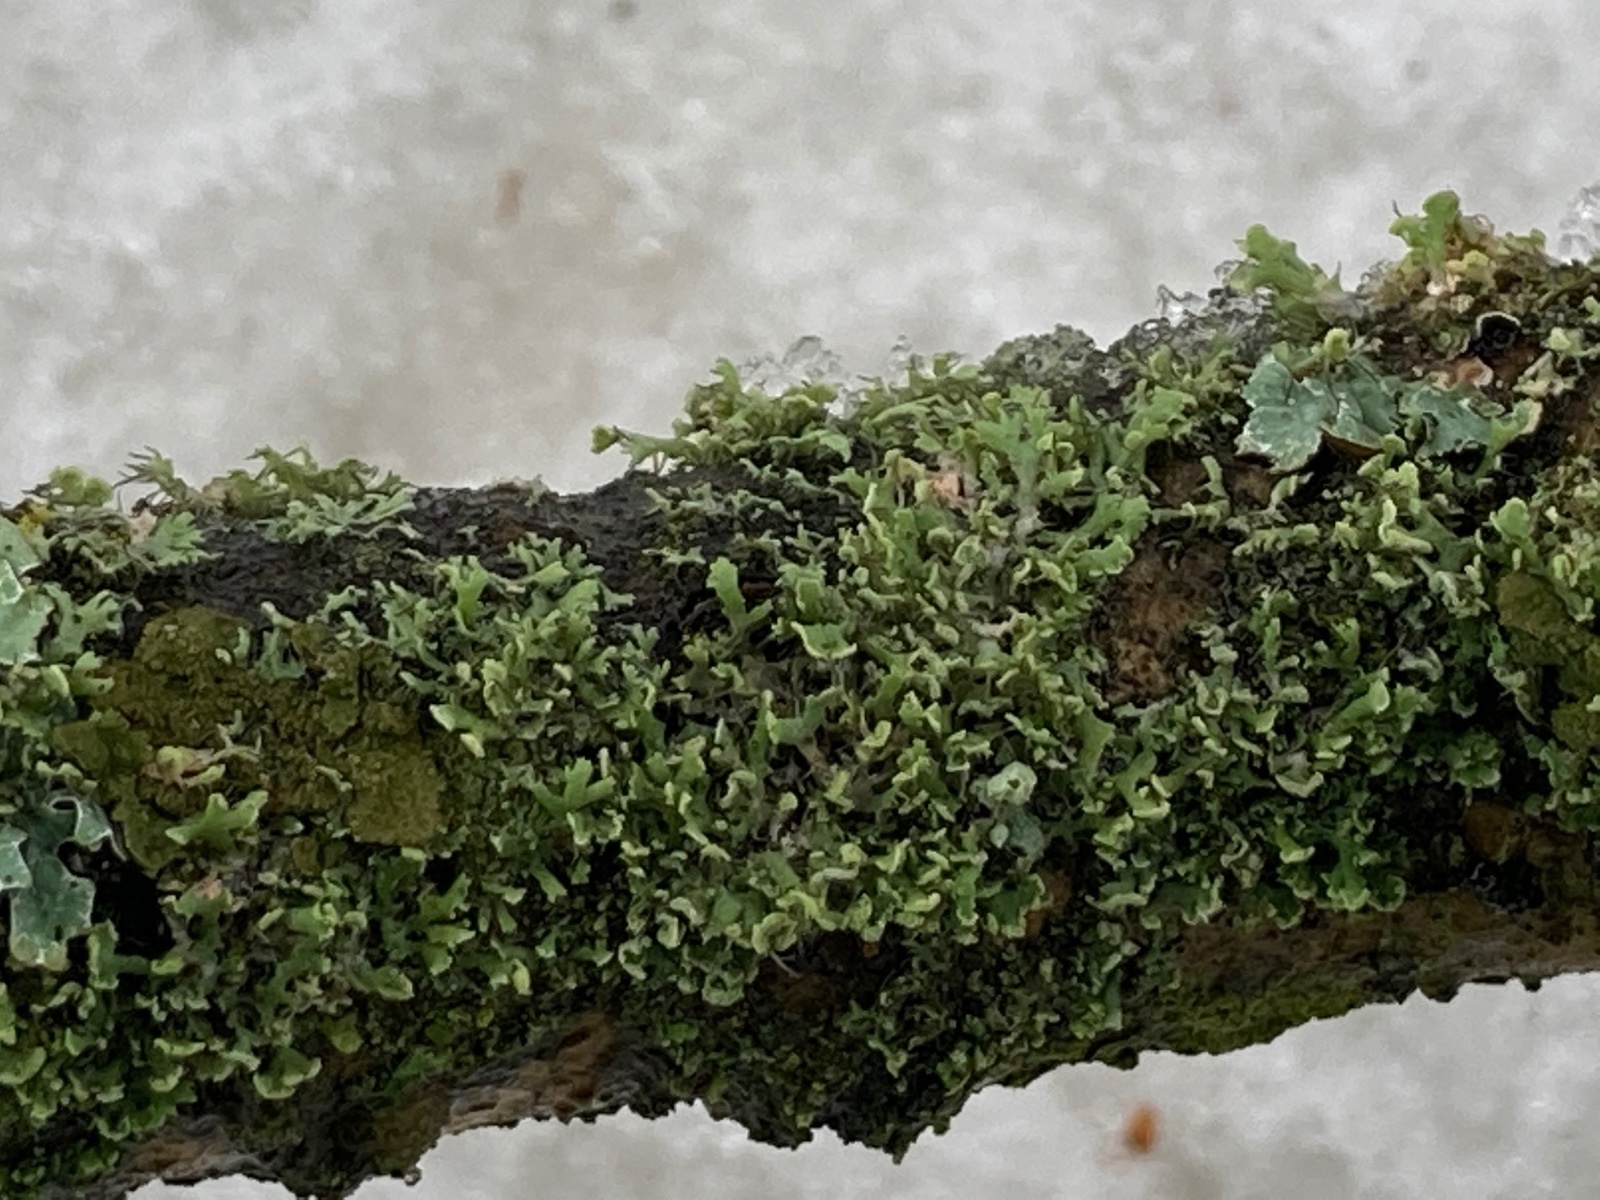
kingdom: Fungi
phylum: Ascomycota
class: Lecanoromycetes
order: Caliciales
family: Physciaceae
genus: Physcia
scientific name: Physcia tenella
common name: spæd rosetlav
